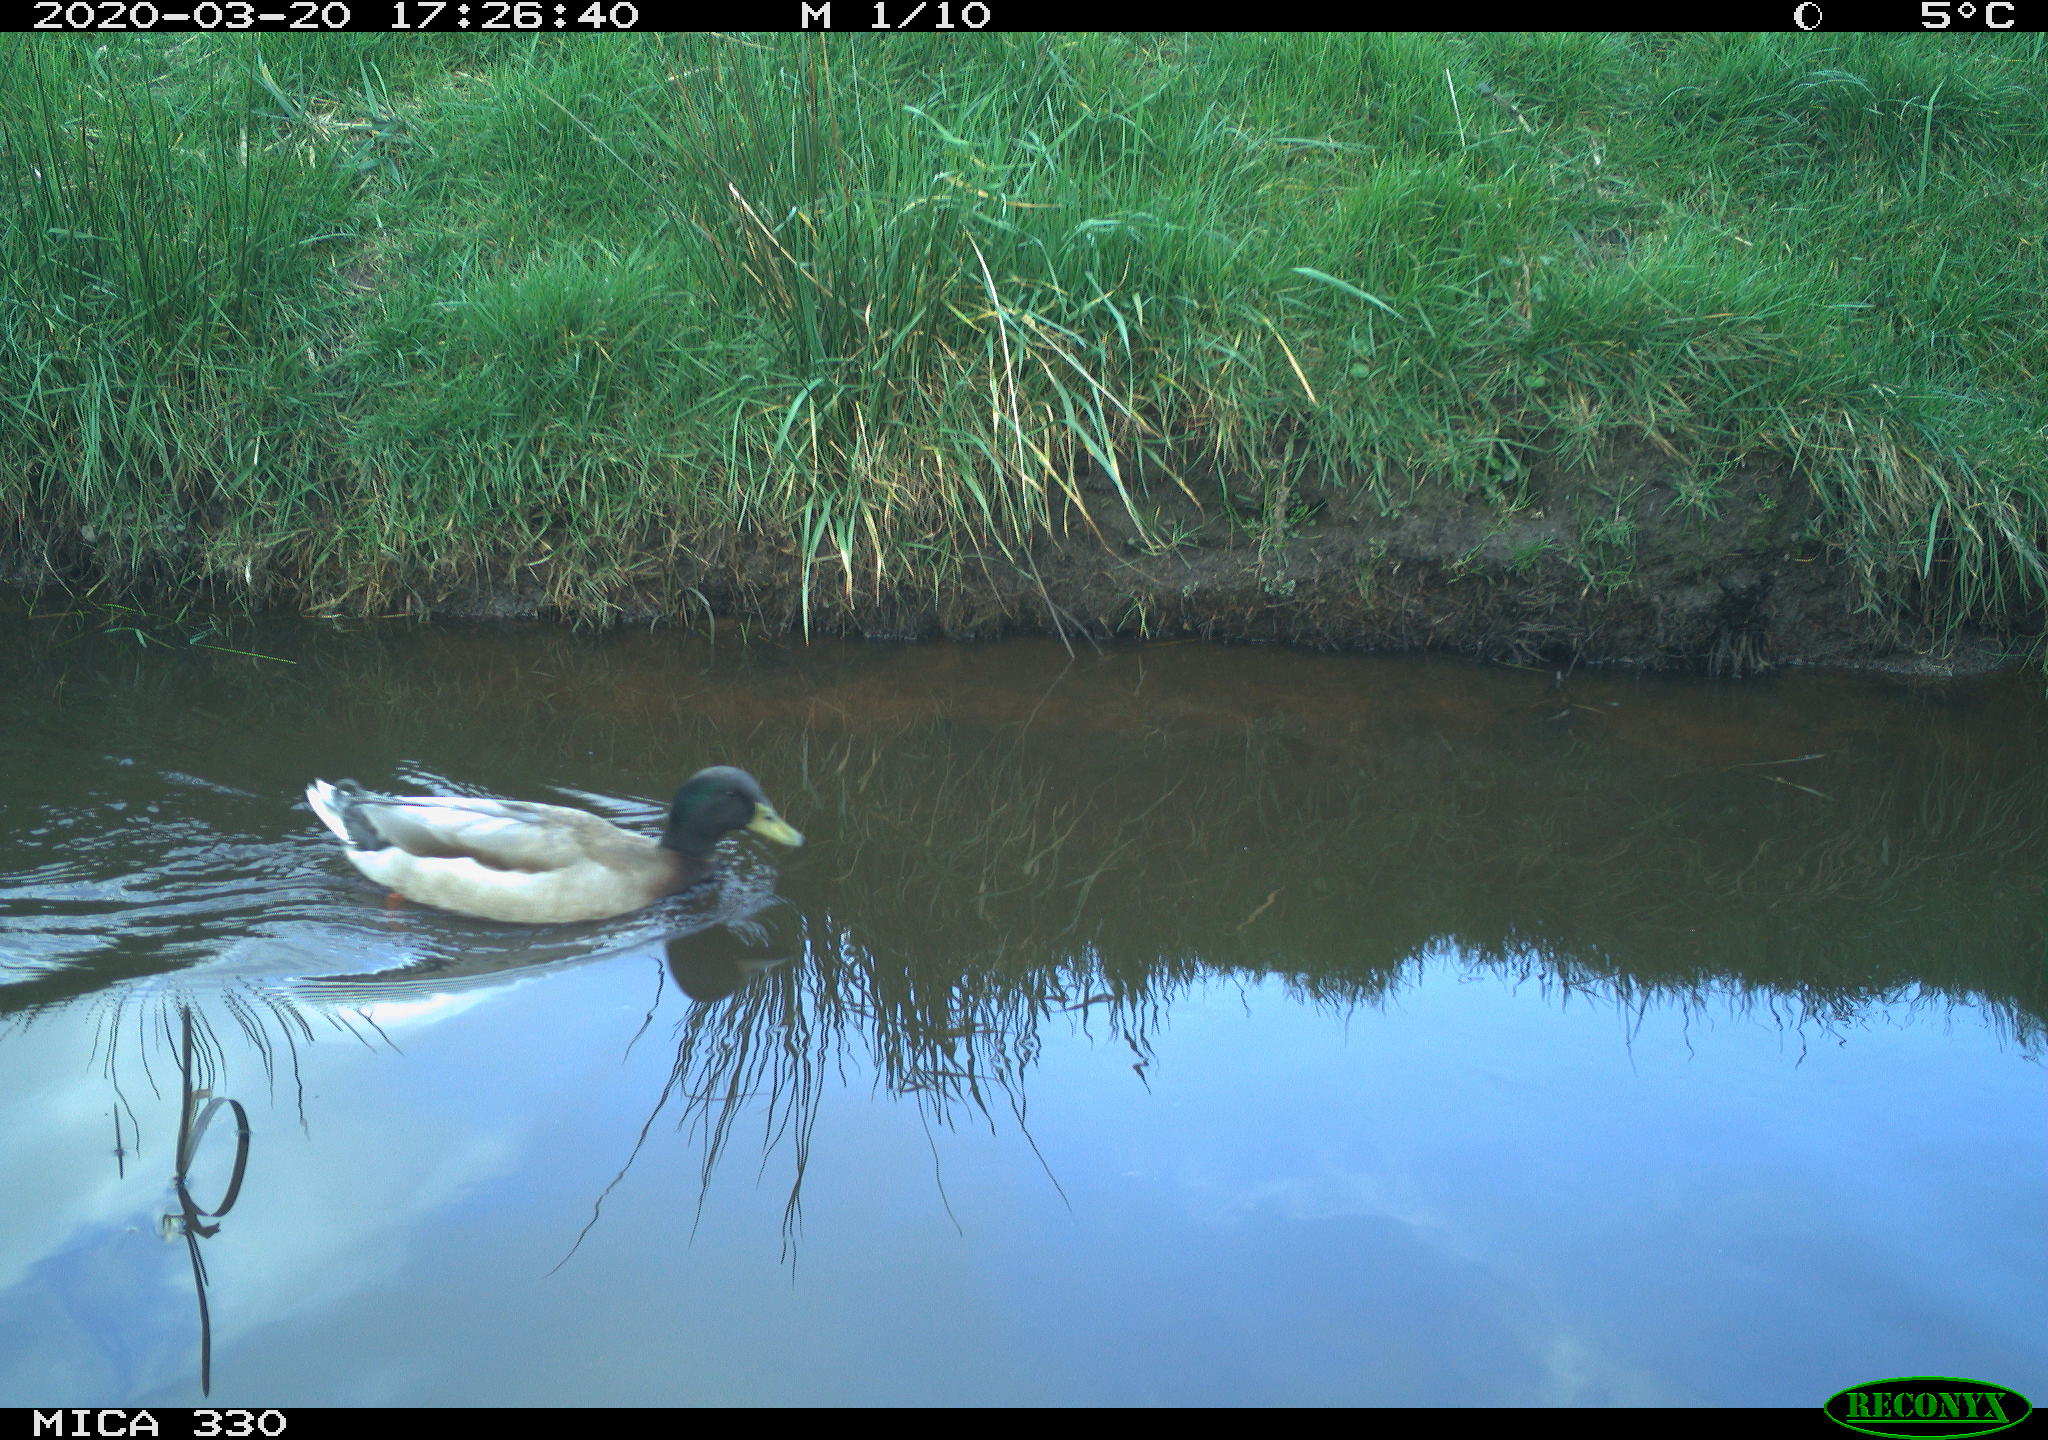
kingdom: Animalia
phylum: Chordata
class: Aves
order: Anseriformes
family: Anatidae
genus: Anas
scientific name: Anas platyrhynchos
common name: Mallard
